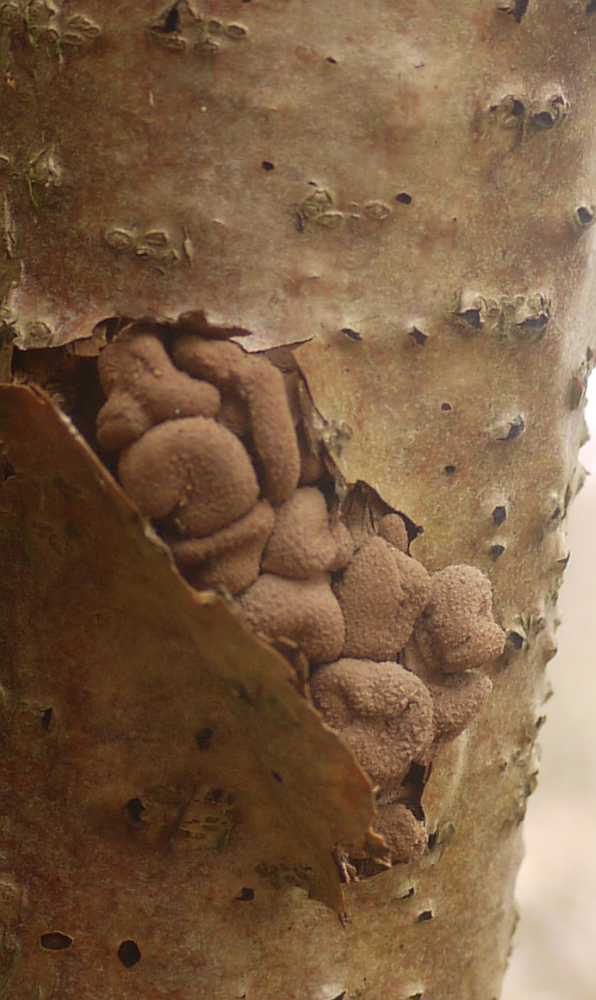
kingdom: Fungi
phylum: Ascomycota
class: Leotiomycetes
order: Helotiales
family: Cenangiaceae
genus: Encoelia
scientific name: Encoelia furfuracea
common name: hassel-læderskive
